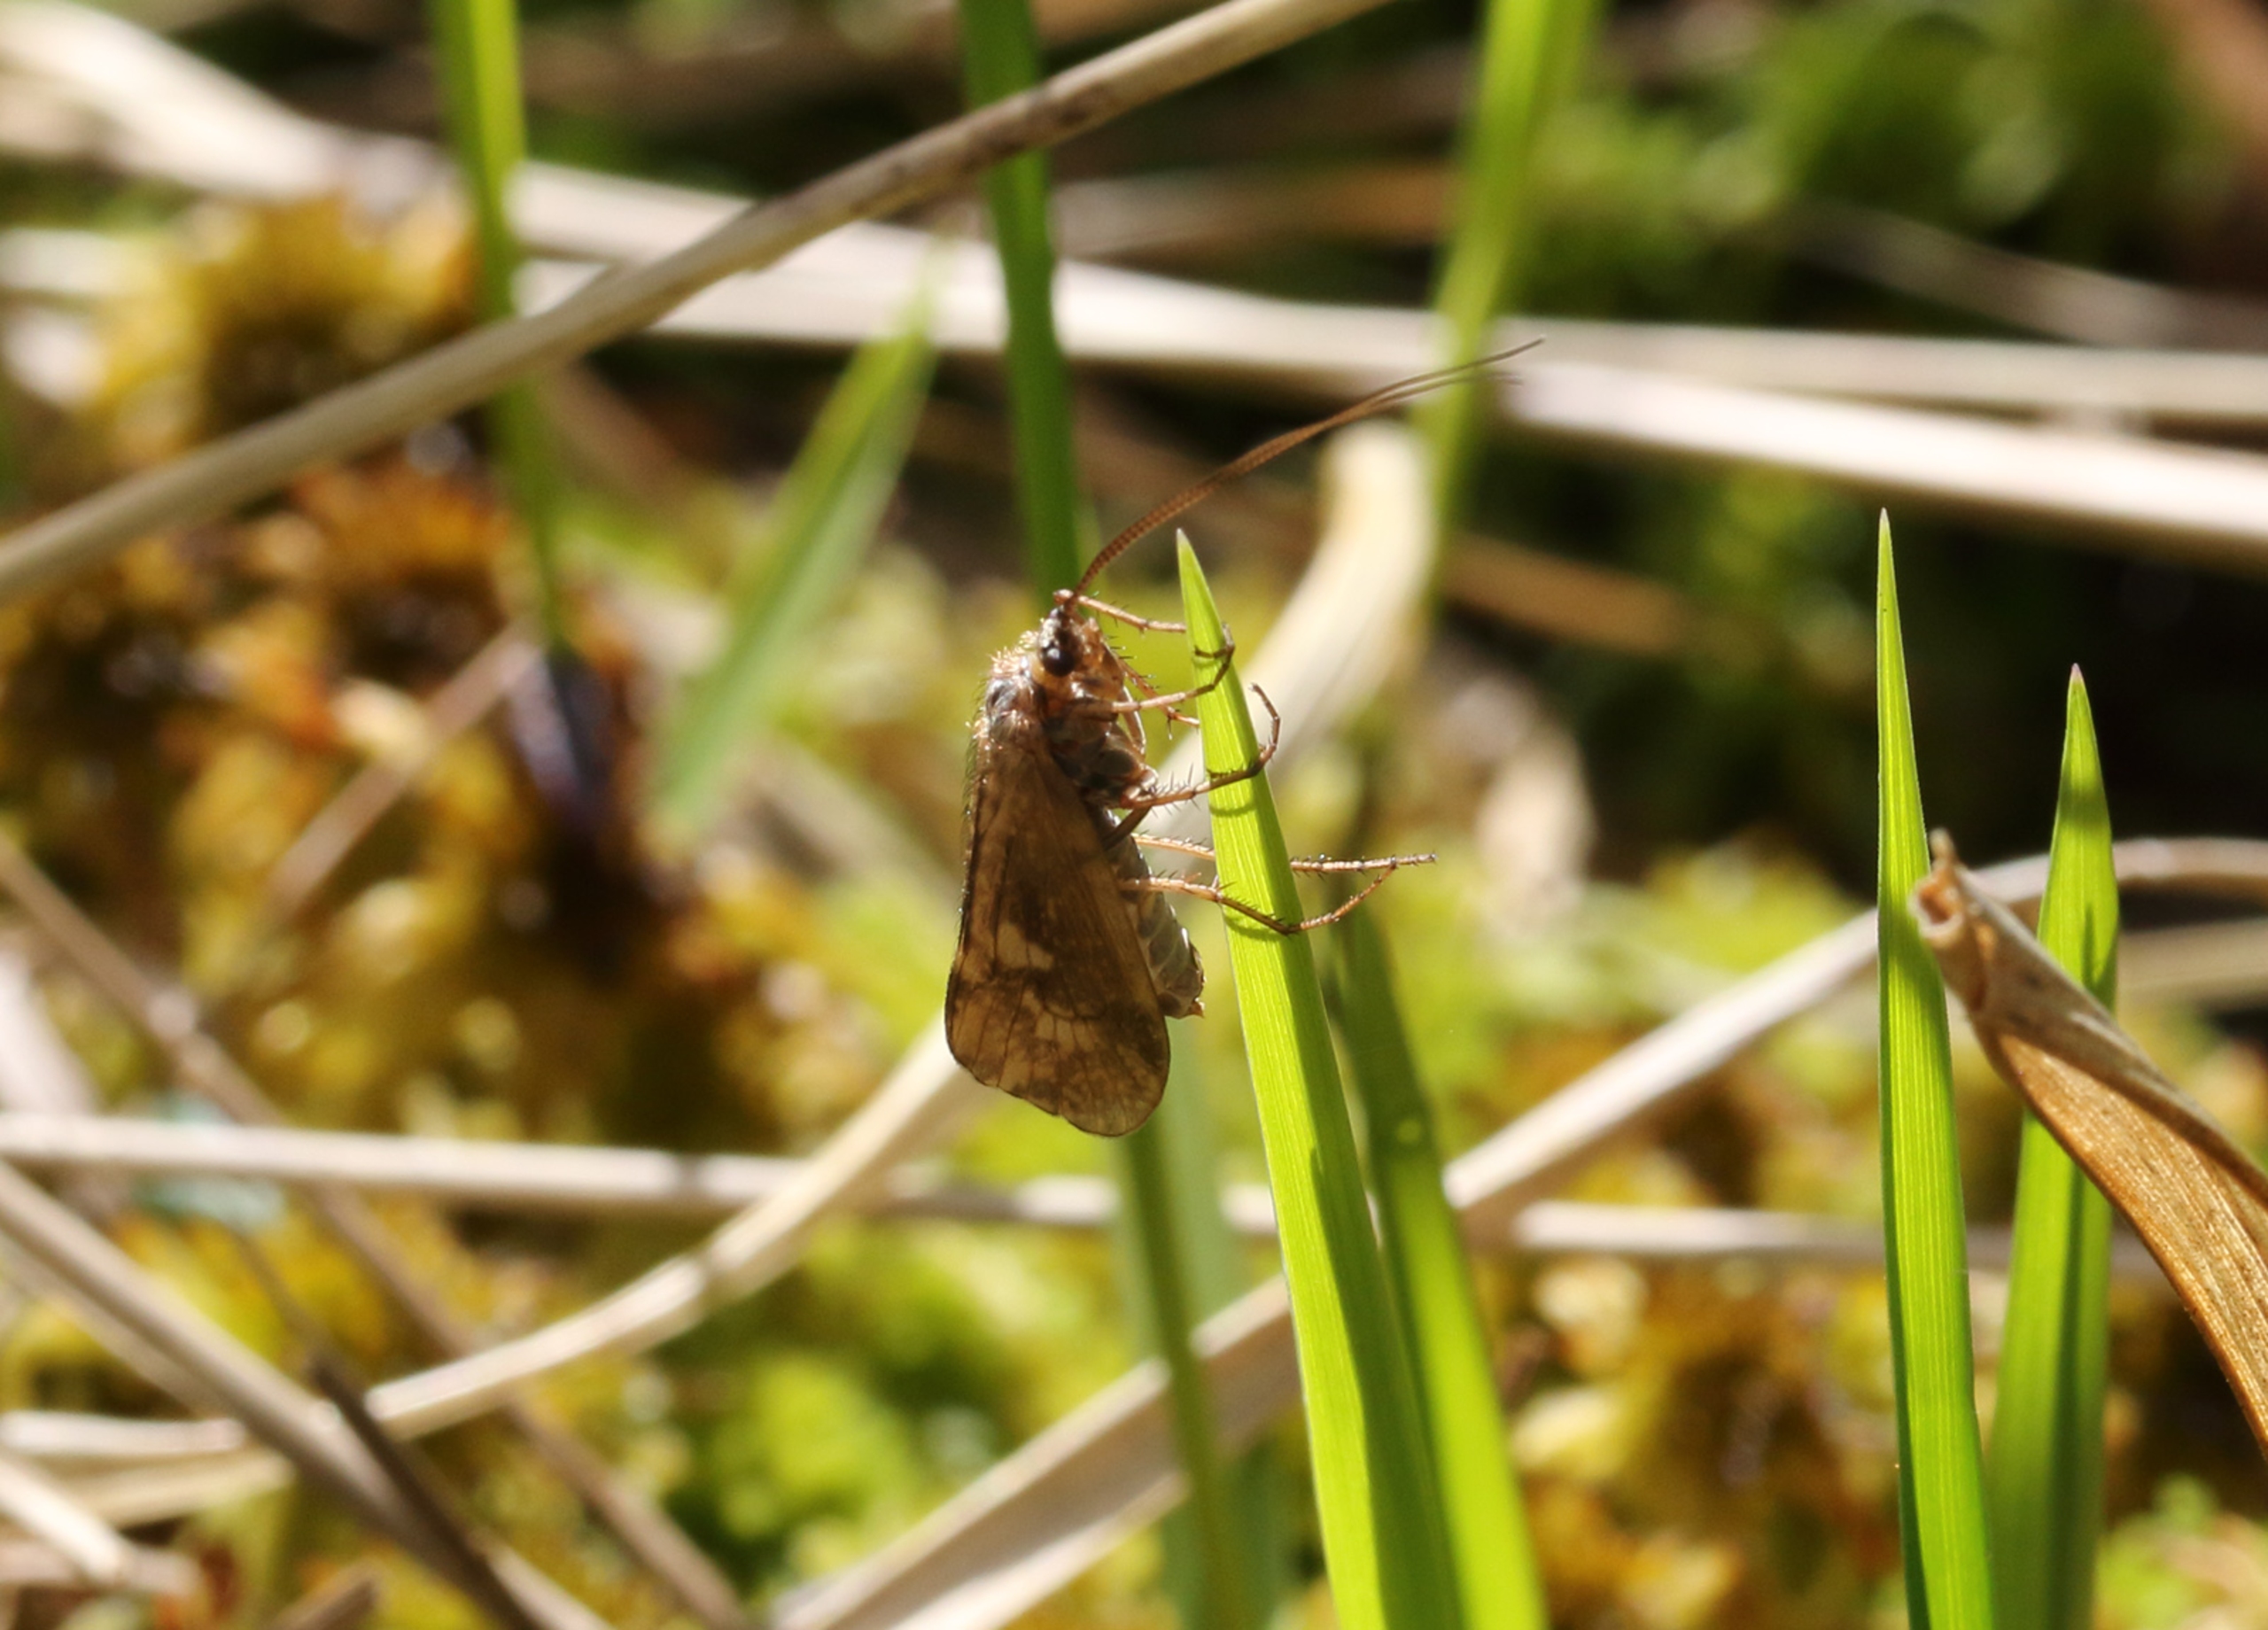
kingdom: Animalia
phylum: Arthropoda
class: Insecta
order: Trichoptera
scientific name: Trichoptera
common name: Vårfluer
